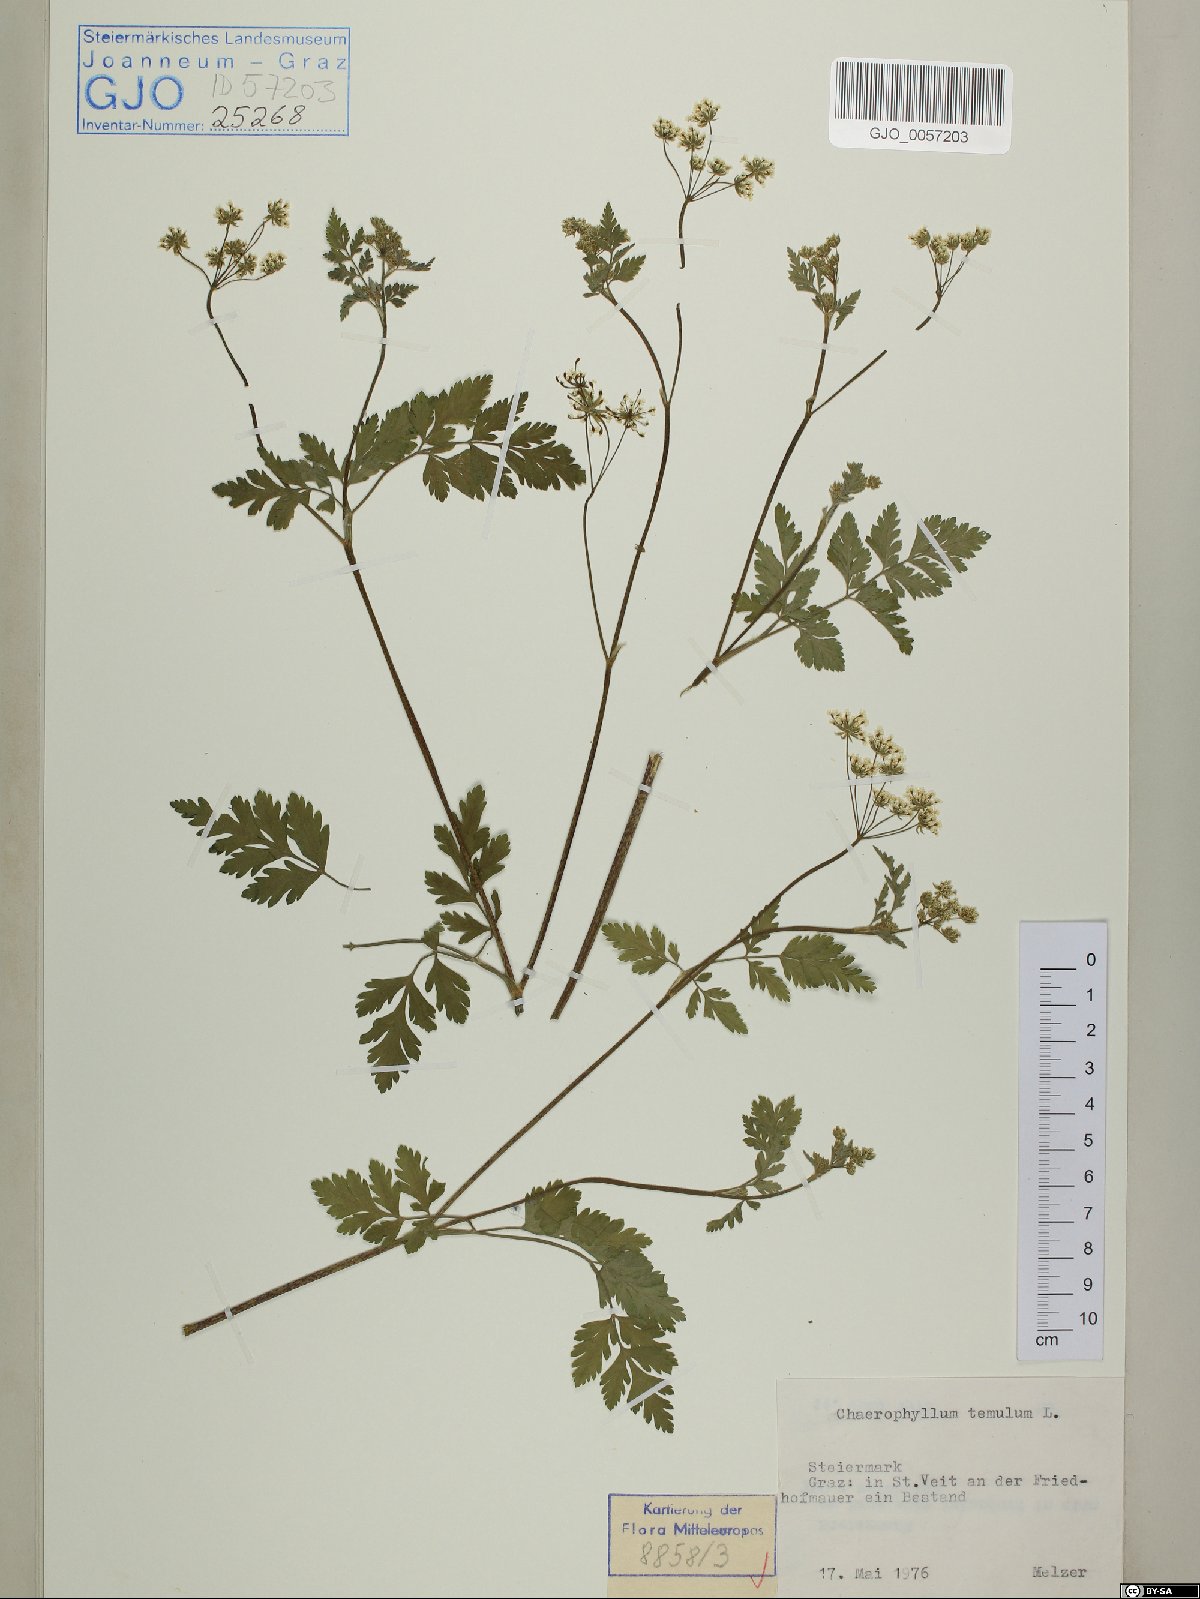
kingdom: Plantae
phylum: Tracheophyta
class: Magnoliopsida
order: Apiales
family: Apiaceae
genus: Chaerophyllum
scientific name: Chaerophyllum temulum
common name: Rough chervil
